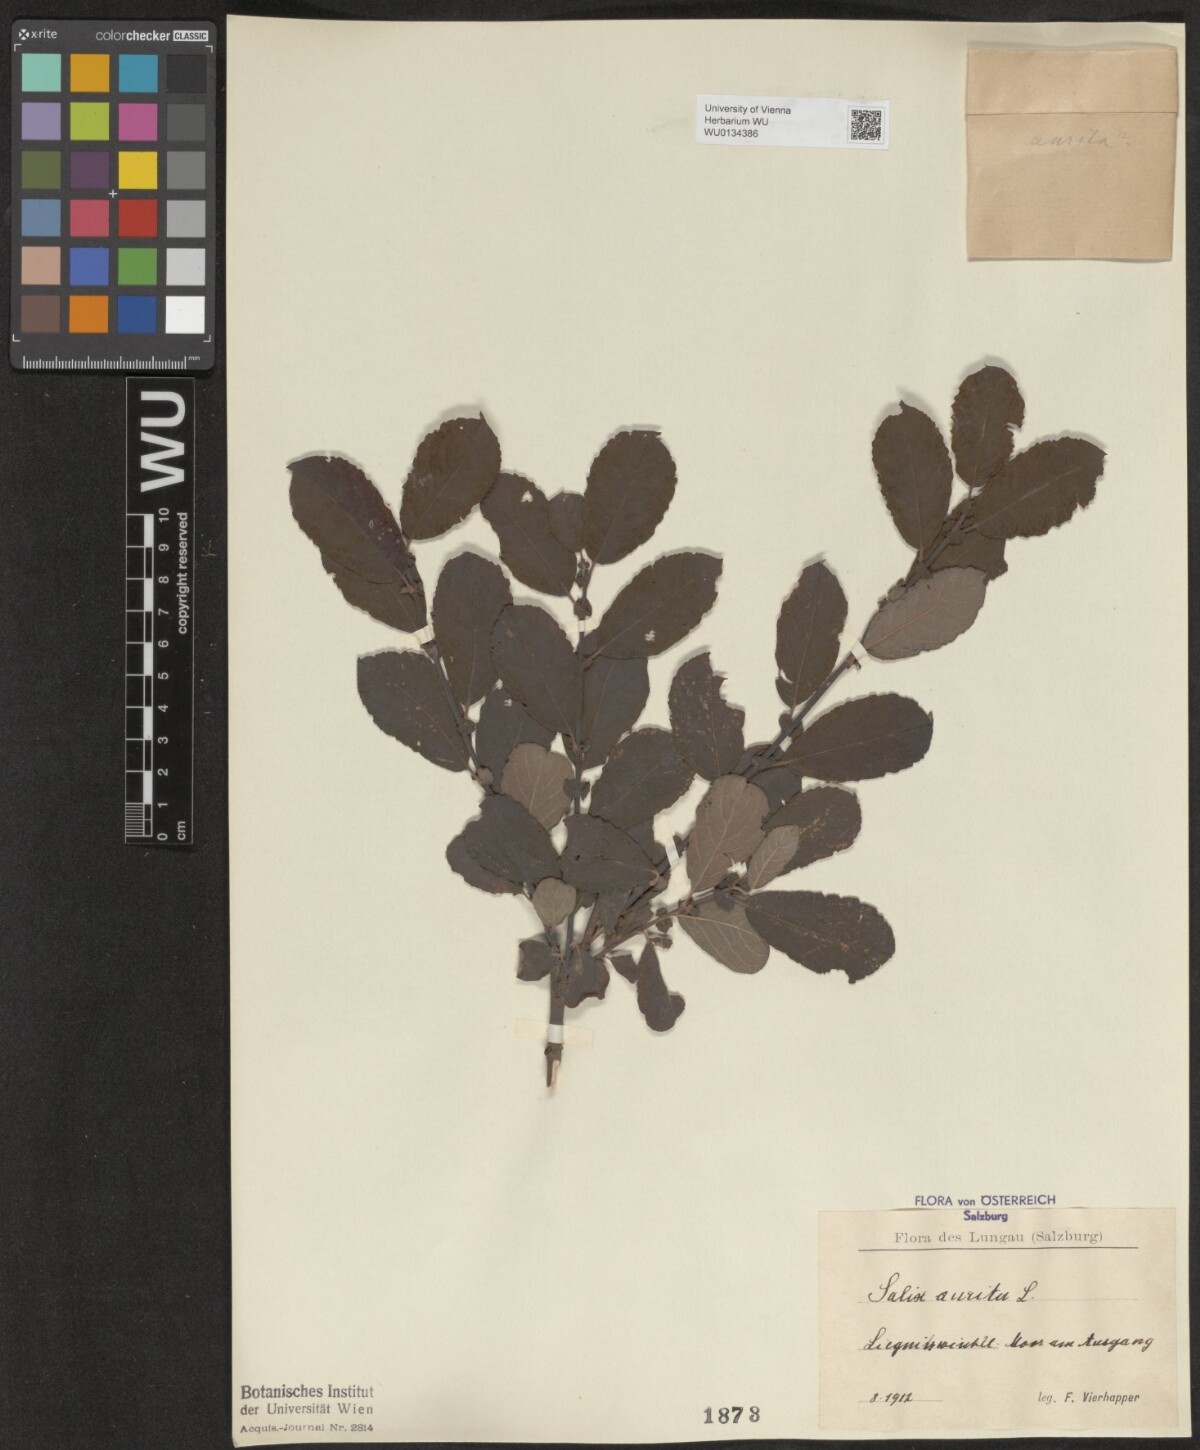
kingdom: Plantae
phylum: Tracheophyta
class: Magnoliopsida
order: Malpighiales
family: Salicaceae
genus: Salix
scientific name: Salix aurita
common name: Eared willow
